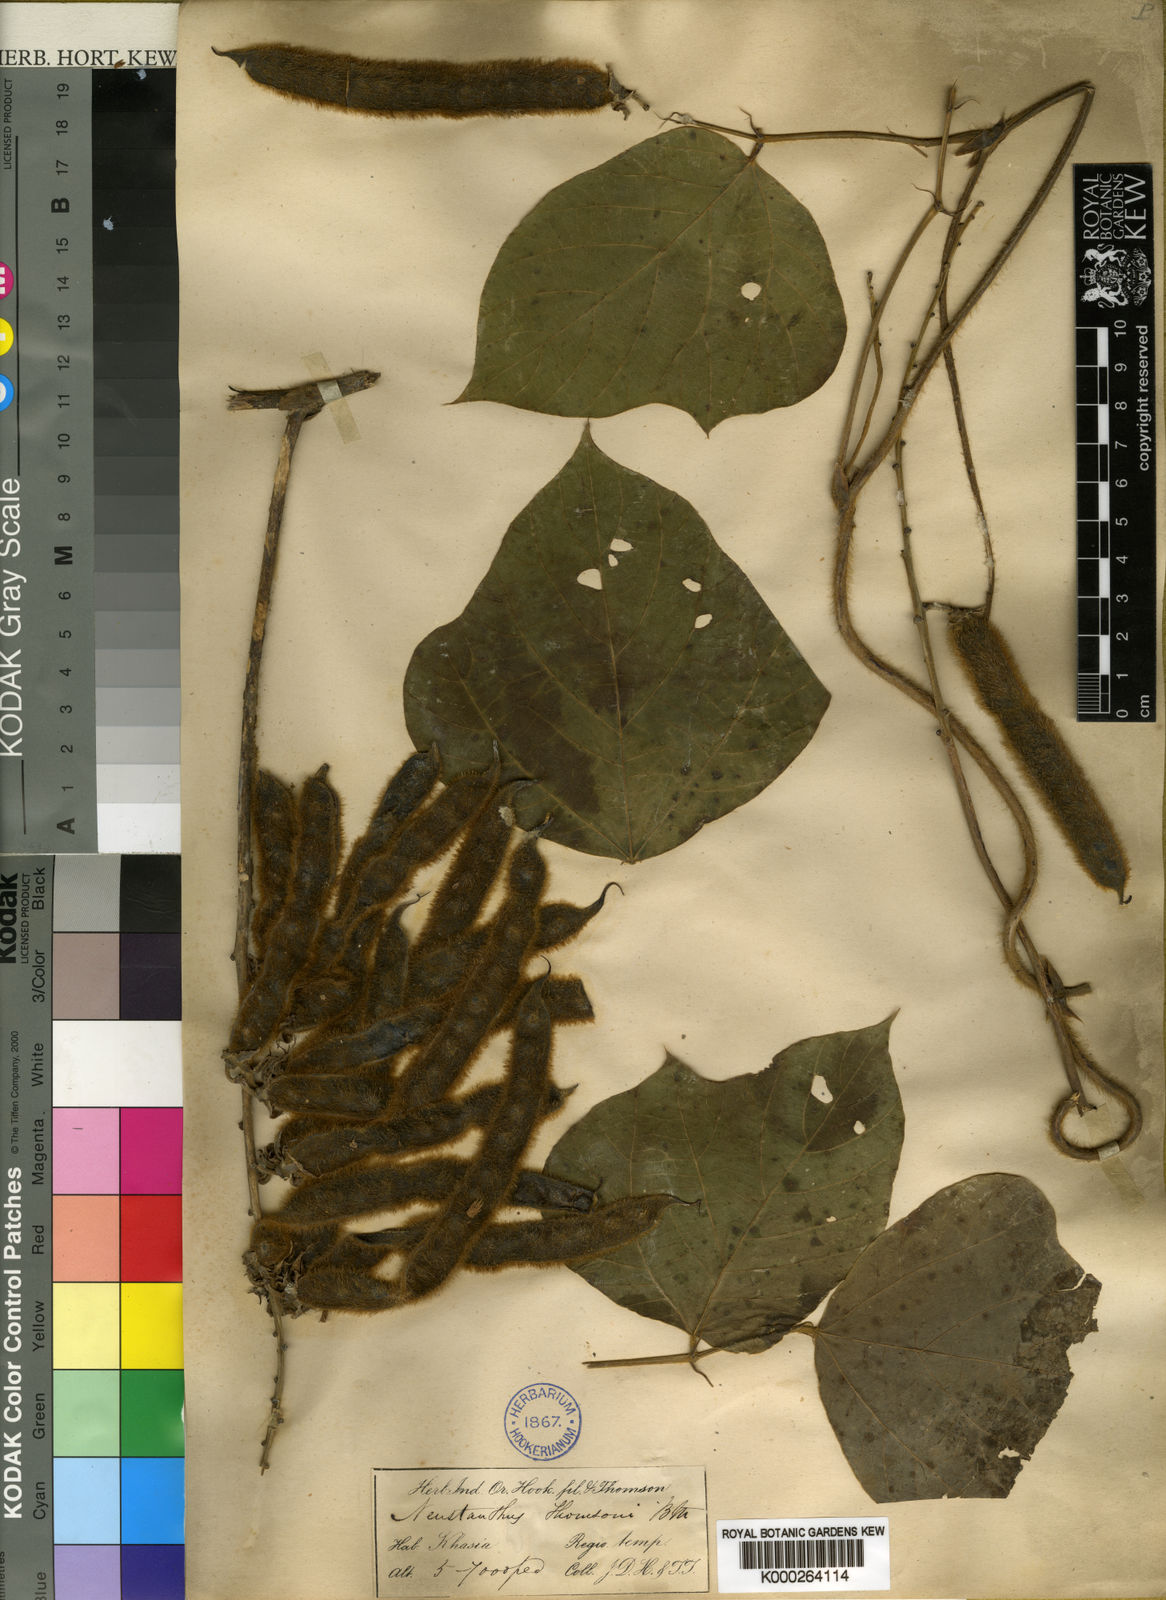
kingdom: Plantae
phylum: Tracheophyta
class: Magnoliopsida
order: Fabales
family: Fabaceae
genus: Neustanthus
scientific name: Neustanthus
